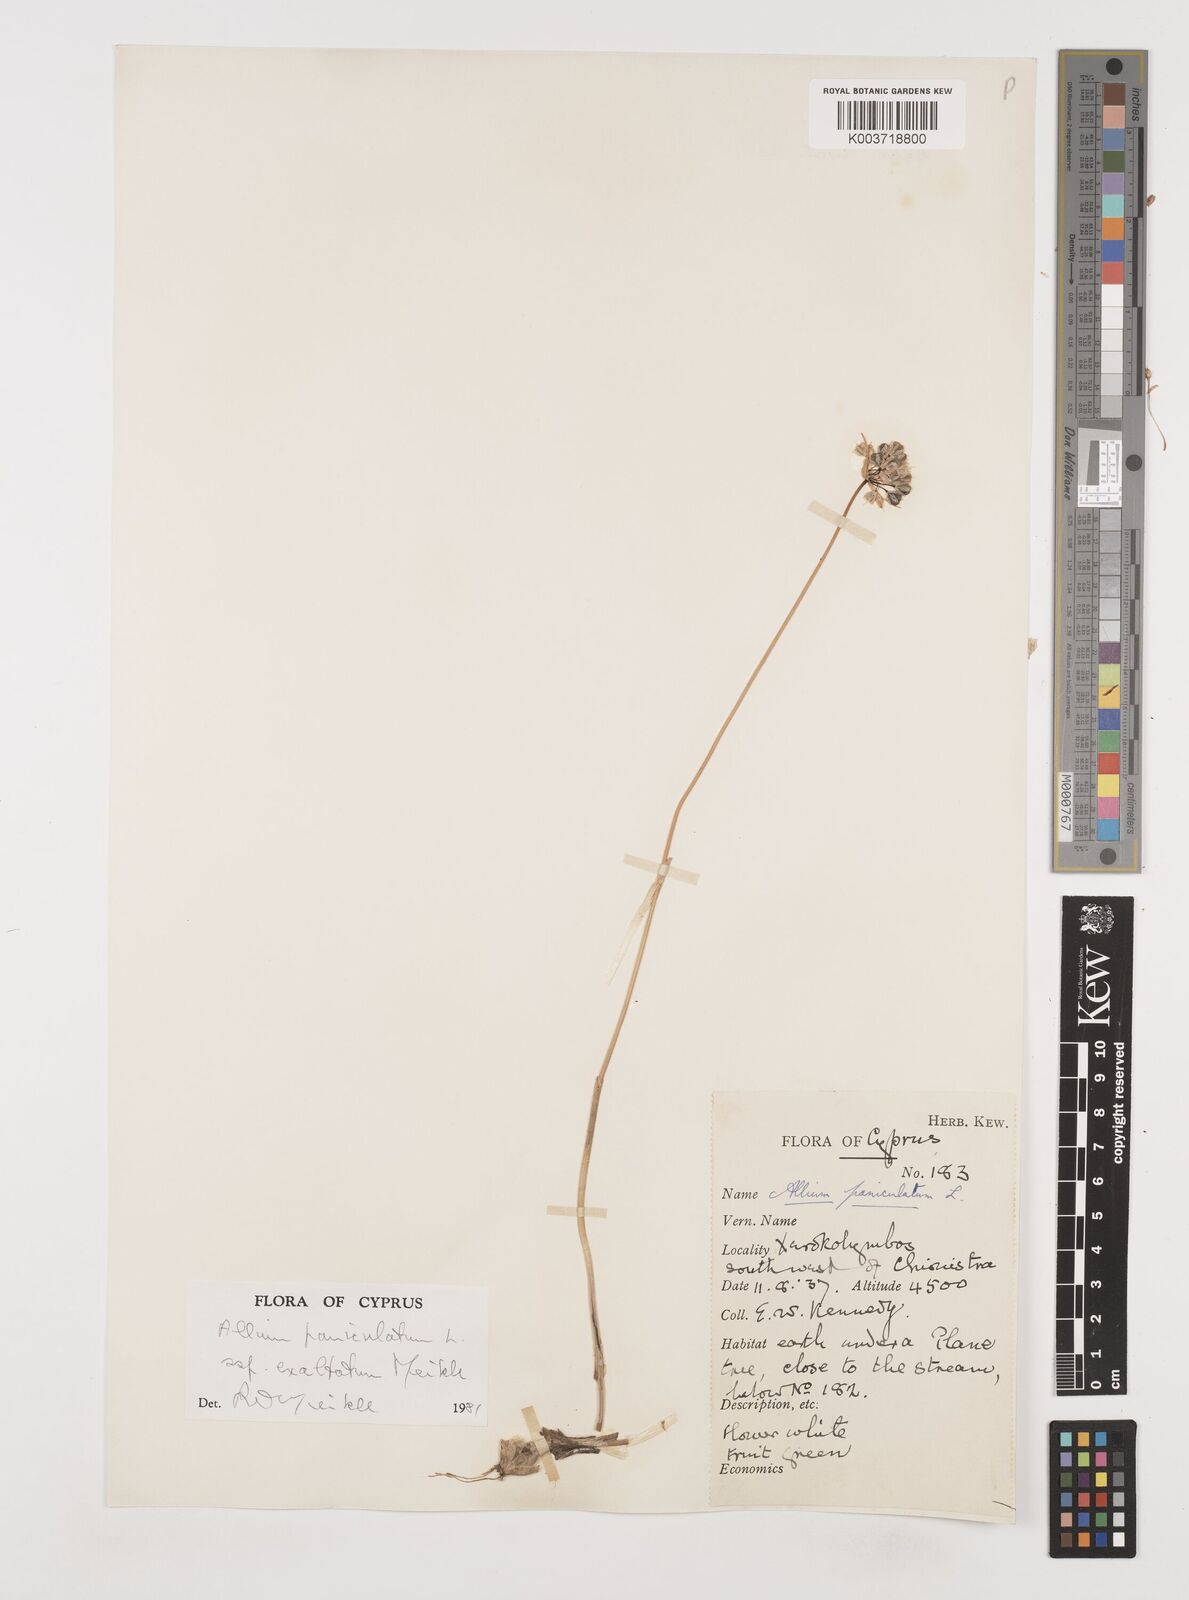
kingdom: Plantae
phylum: Tracheophyta
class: Liliopsida
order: Asparagales
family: Amaryllidaceae
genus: Allium
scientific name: Allium paniculatum
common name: Pale garlic
